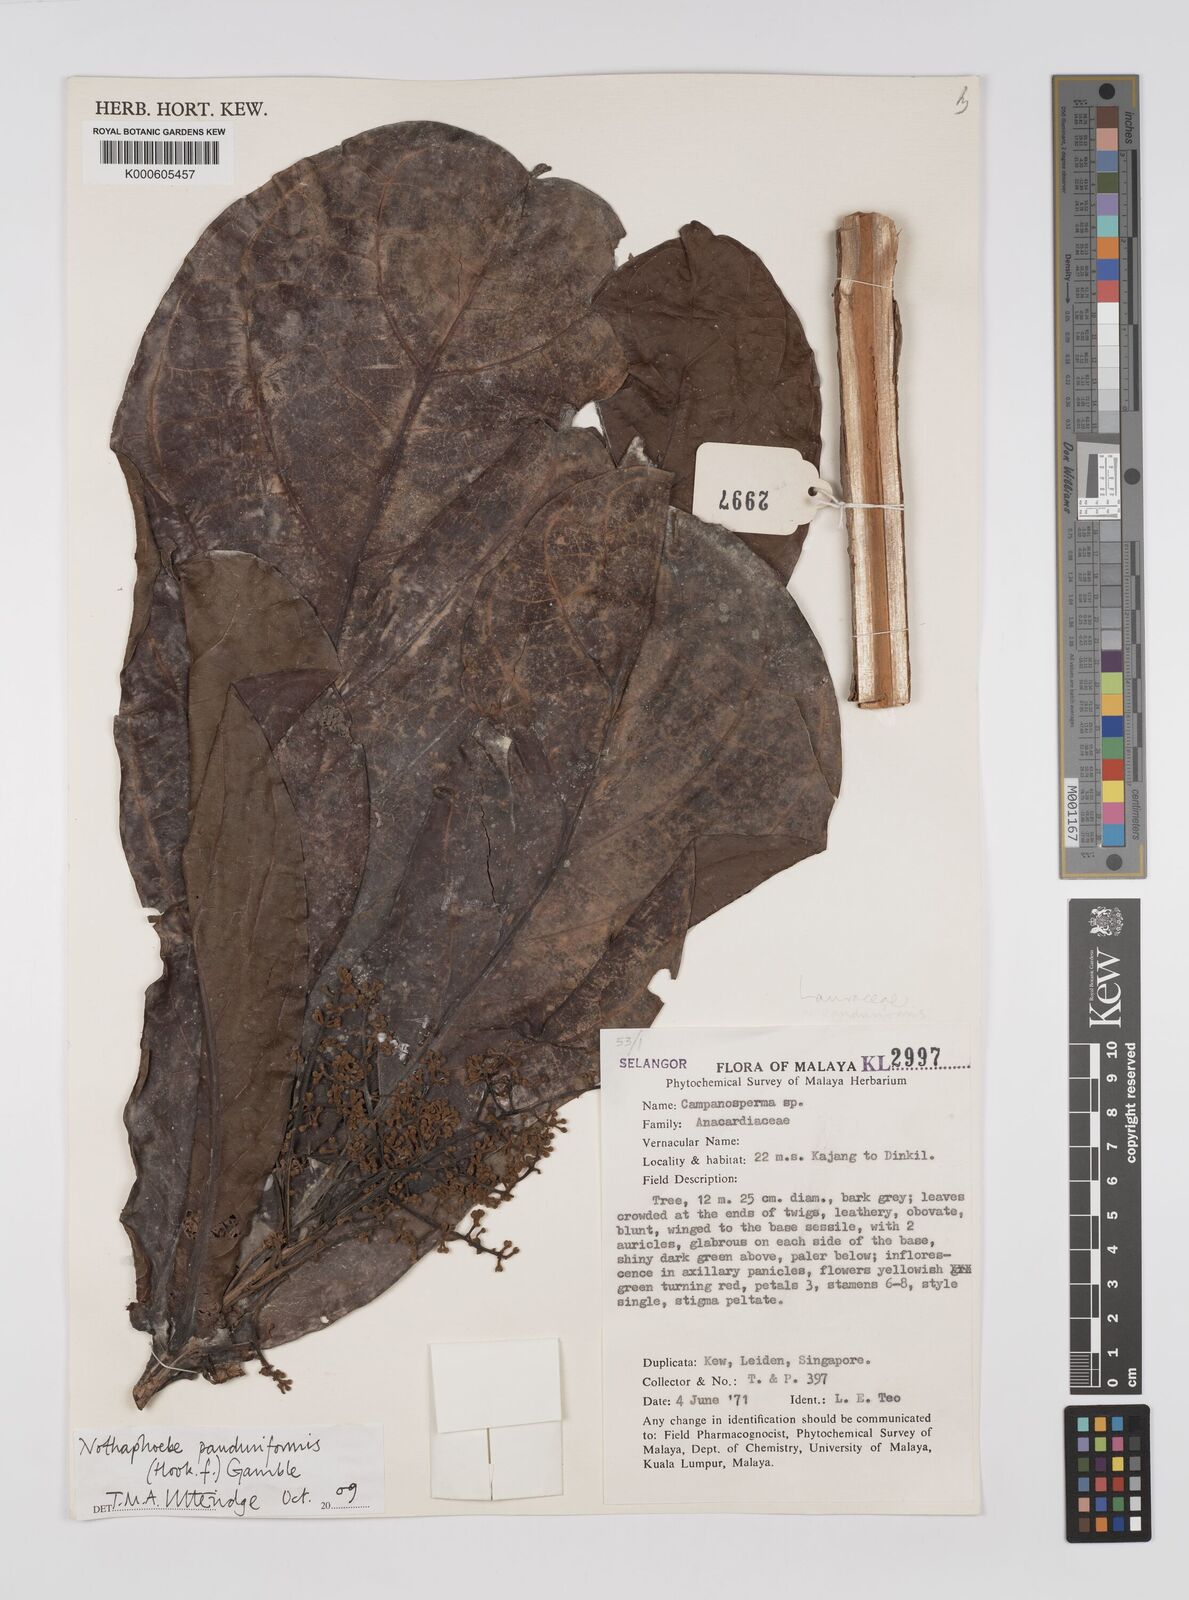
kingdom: Plantae
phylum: Tracheophyta
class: Magnoliopsida
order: Laurales
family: Lauraceae
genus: Alseodaphne
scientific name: Alseodaphne panduriformis
